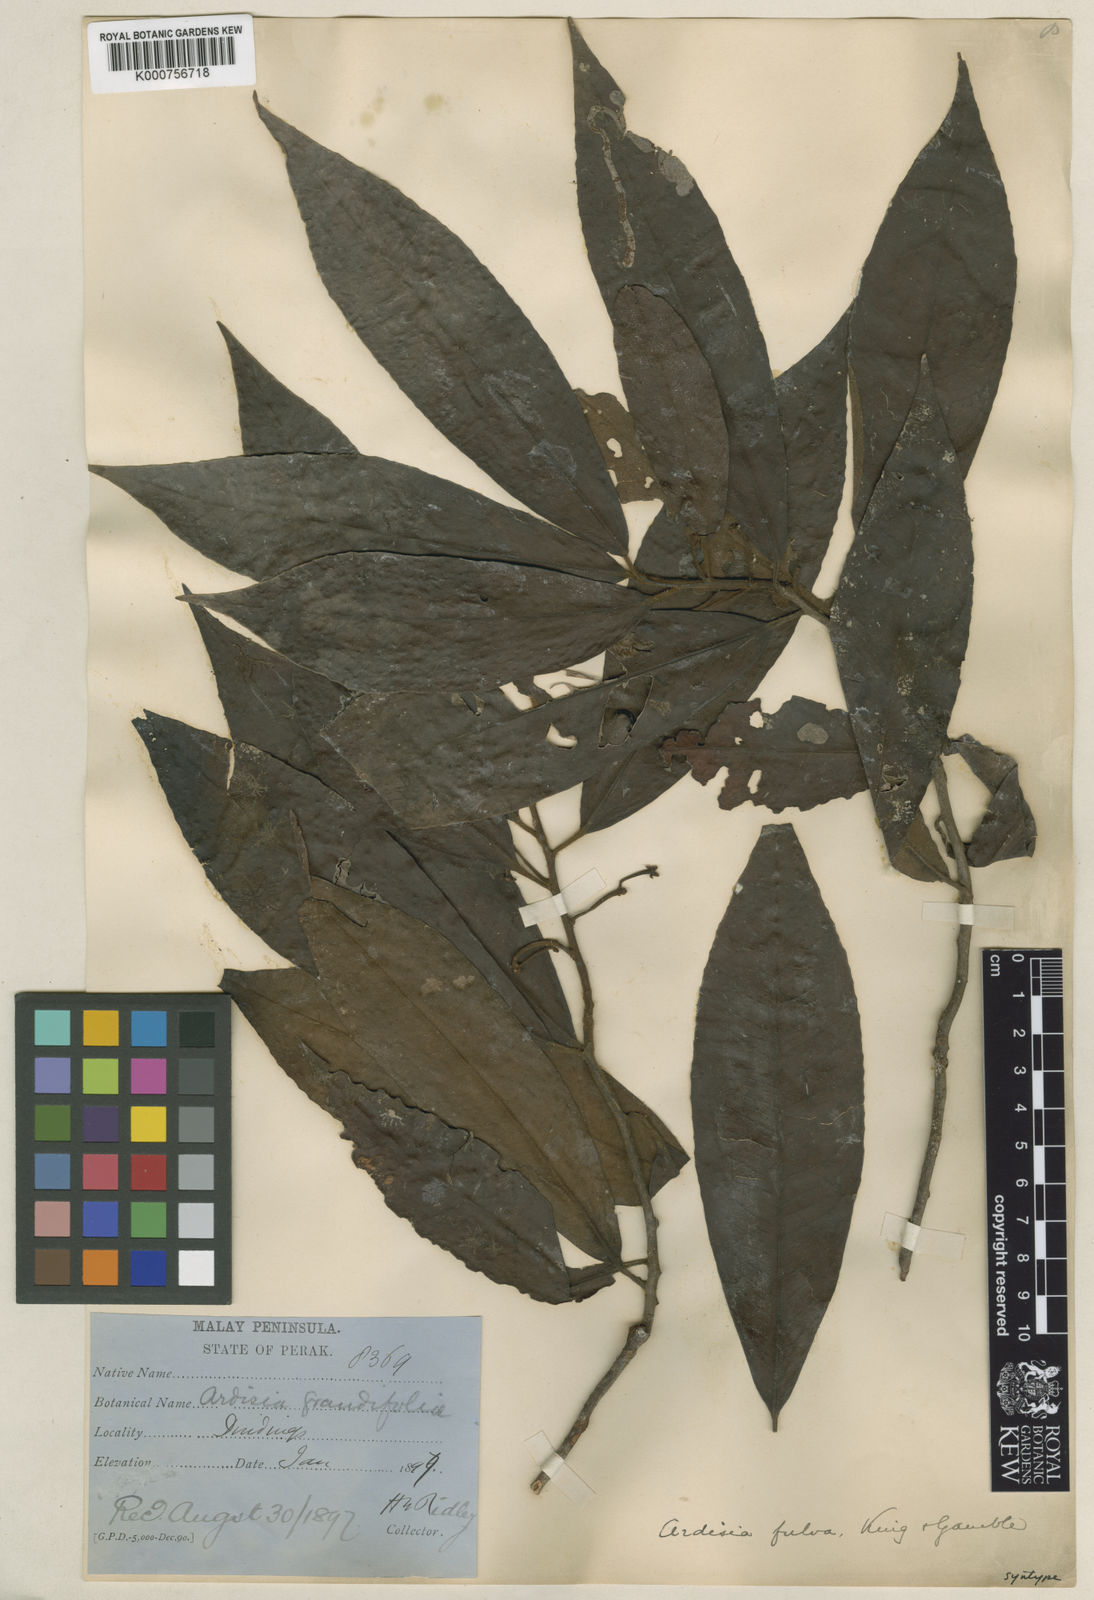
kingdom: Plantae
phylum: Tracheophyta
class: Magnoliopsida
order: Ericales
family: Primulaceae
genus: Ardisia
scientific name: Ardisia fulva
